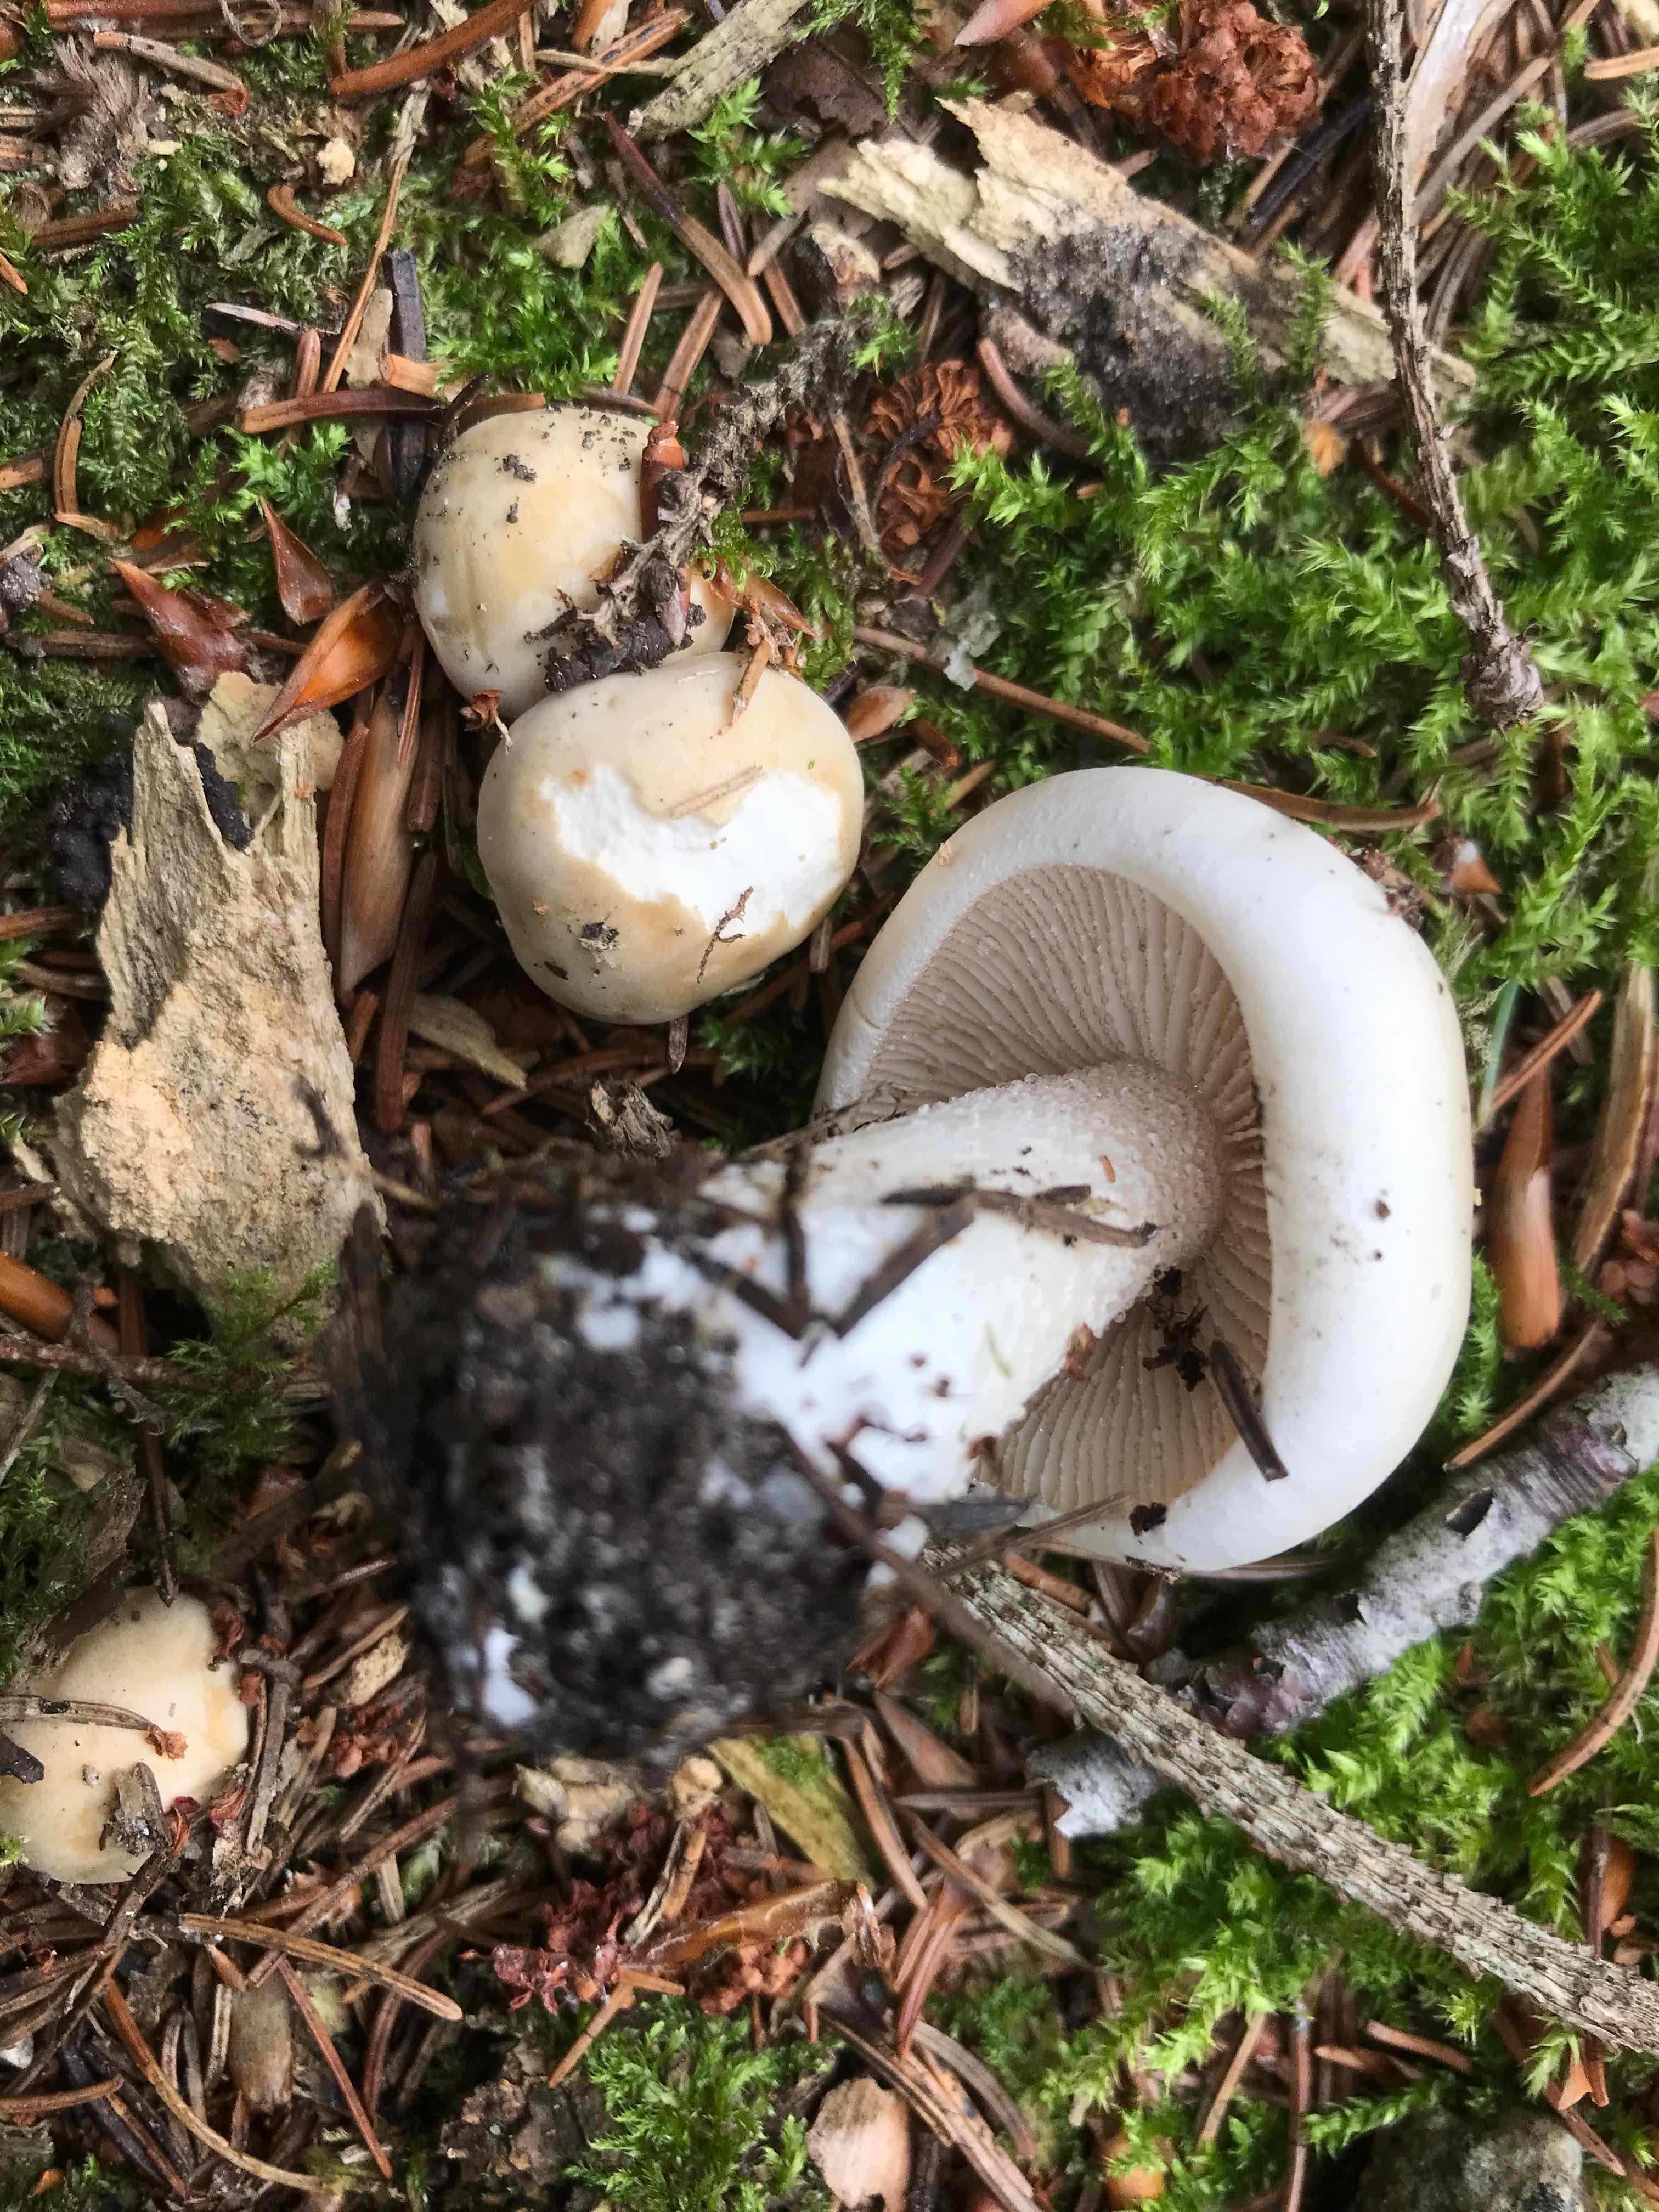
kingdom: Fungi
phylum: Basidiomycota
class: Agaricomycetes
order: Agaricales
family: Hymenogastraceae
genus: Hebeloma
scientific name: Hebeloma crustuliniforme
